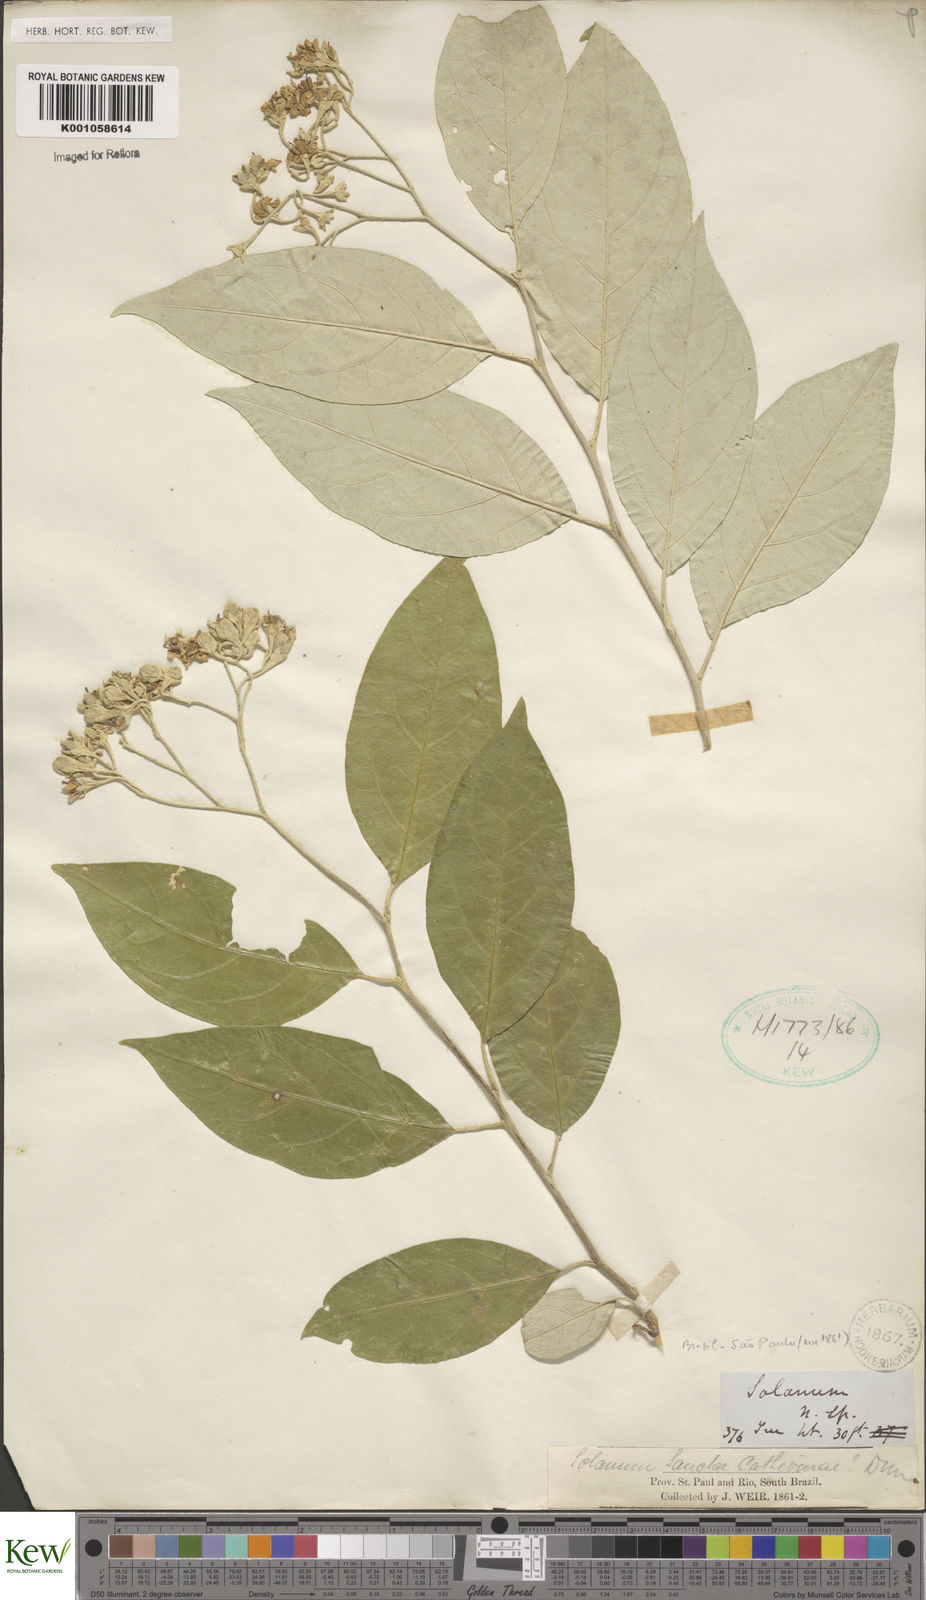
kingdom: Plantae
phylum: Tracheophyta
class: Magnoliopsida
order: Solanales
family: Solanaceae
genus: Solanum
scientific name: Solanum sanctae-catharinae
